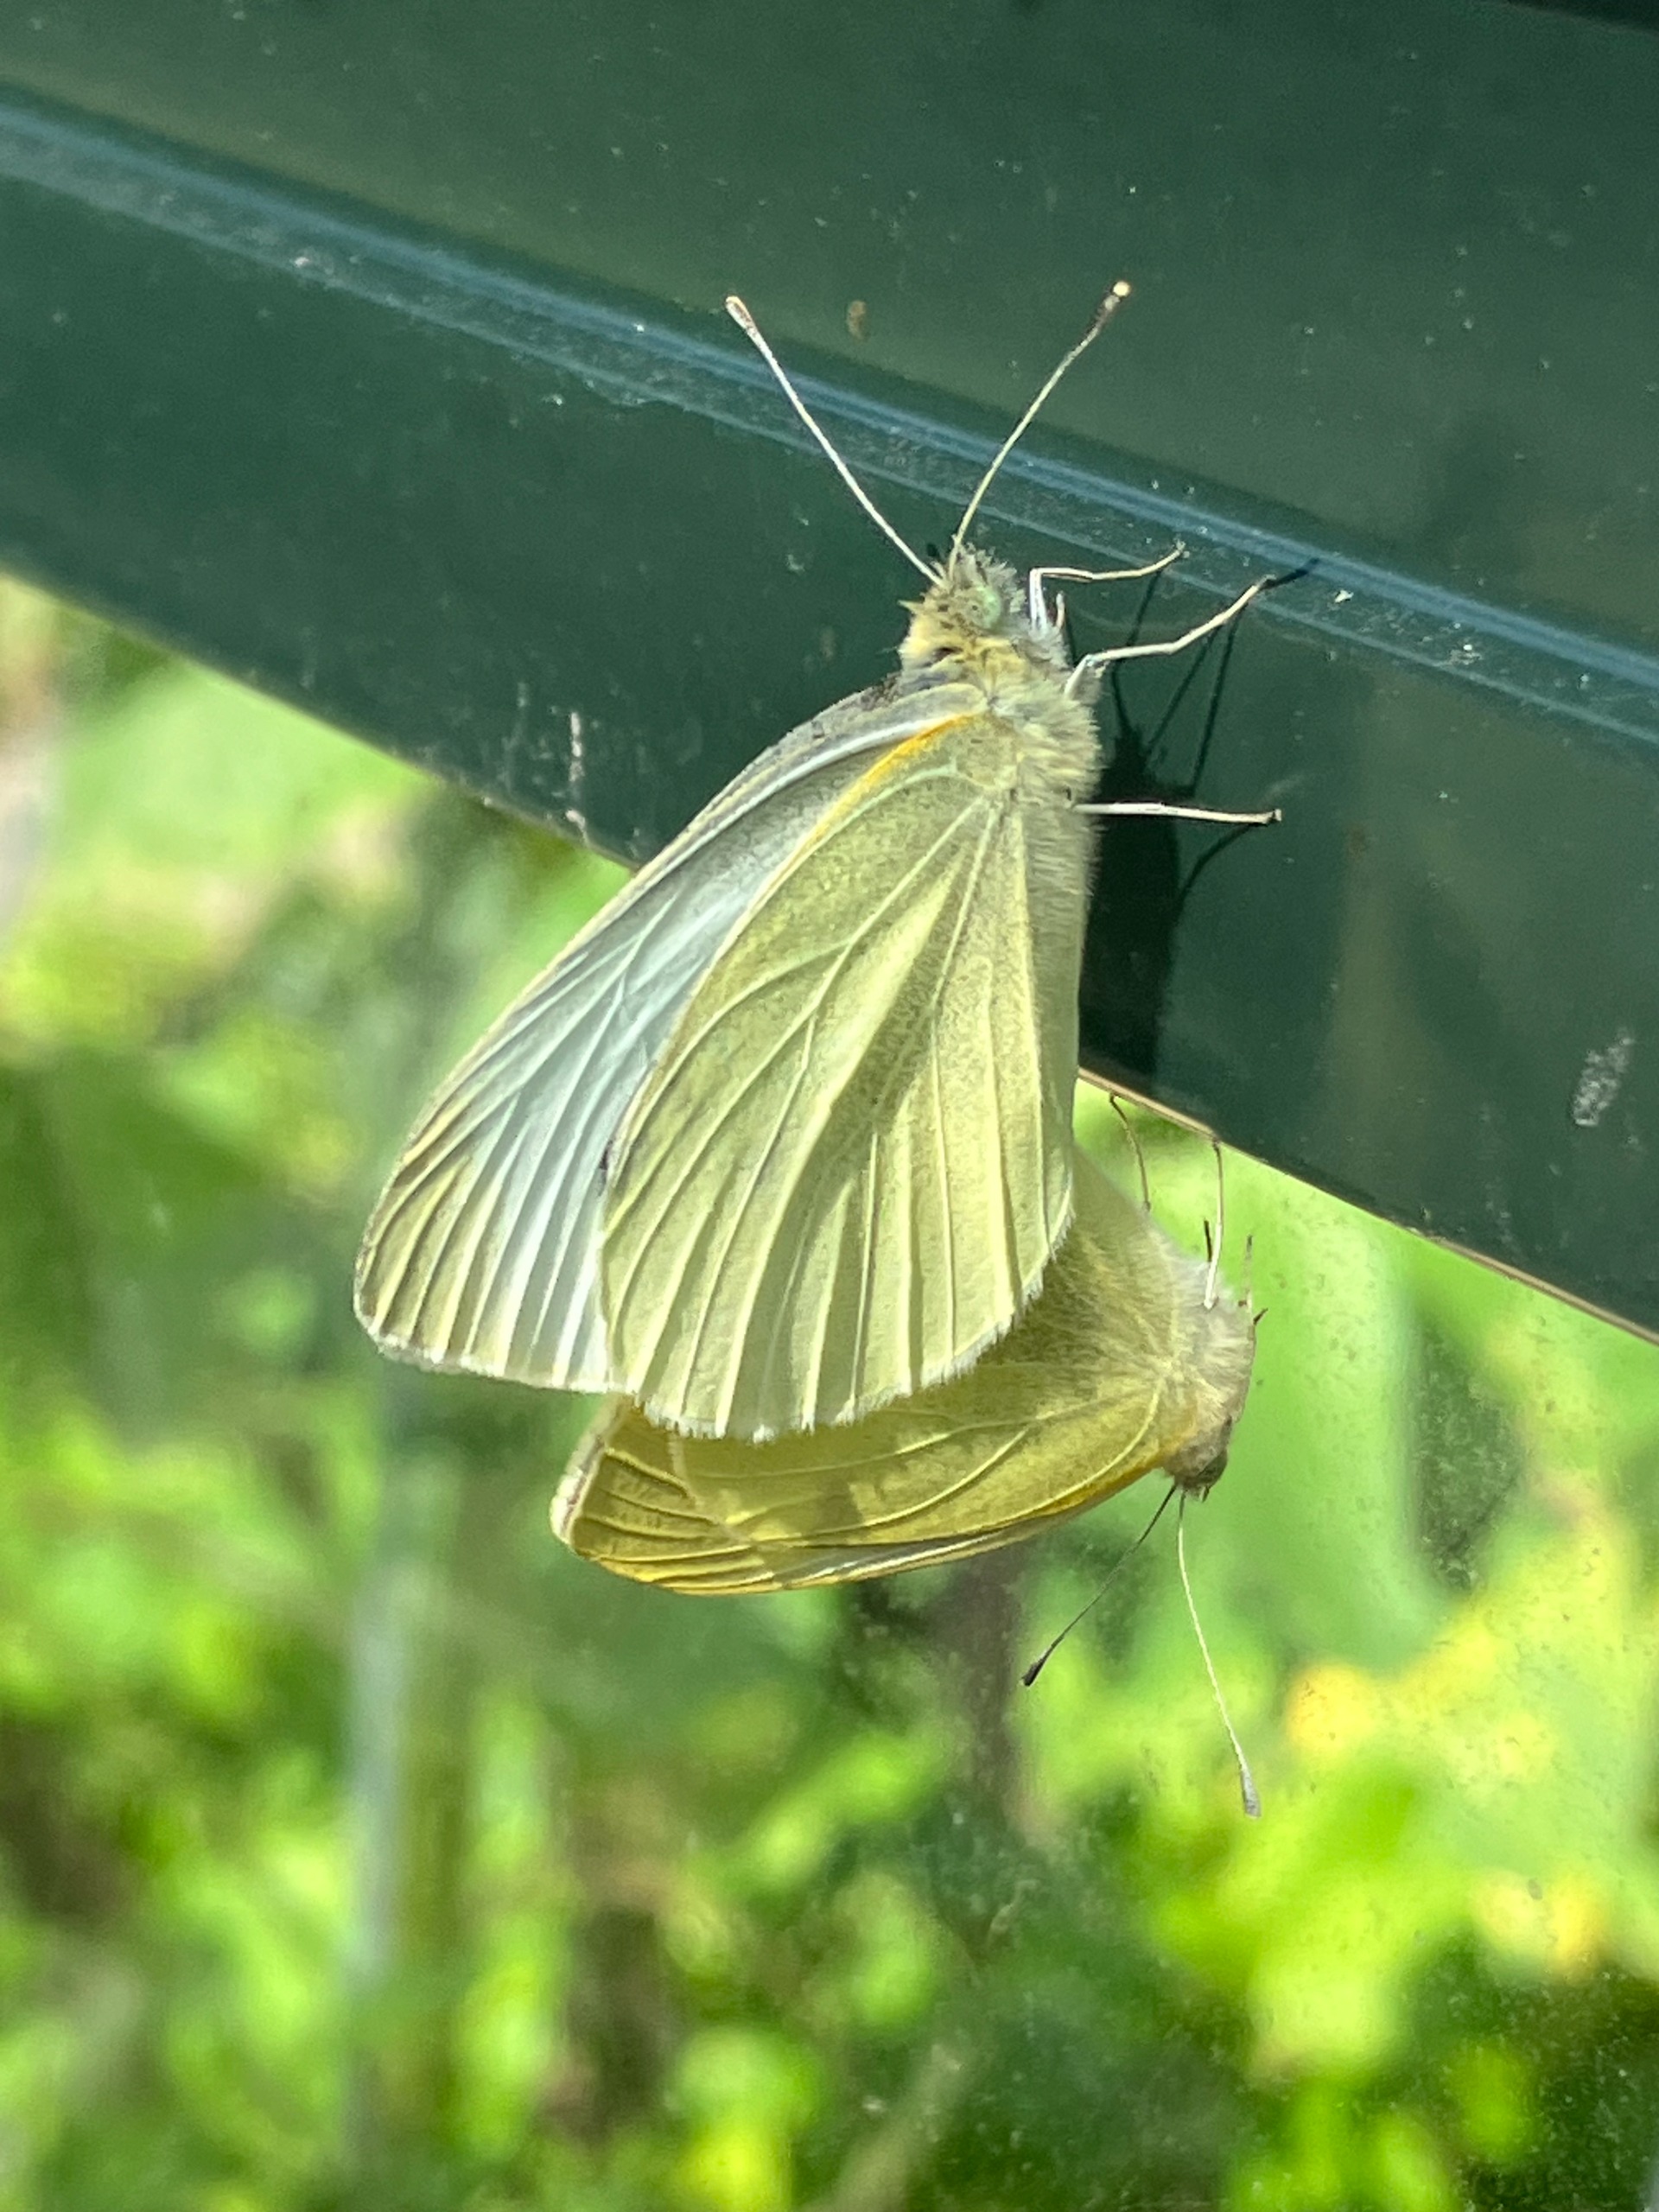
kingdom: Animalia
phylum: Arthropoda
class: Insecta
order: Lepidoptera
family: Pieridae
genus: Pieris
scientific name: Pieris rapae
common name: Lille kålsommerfugl
